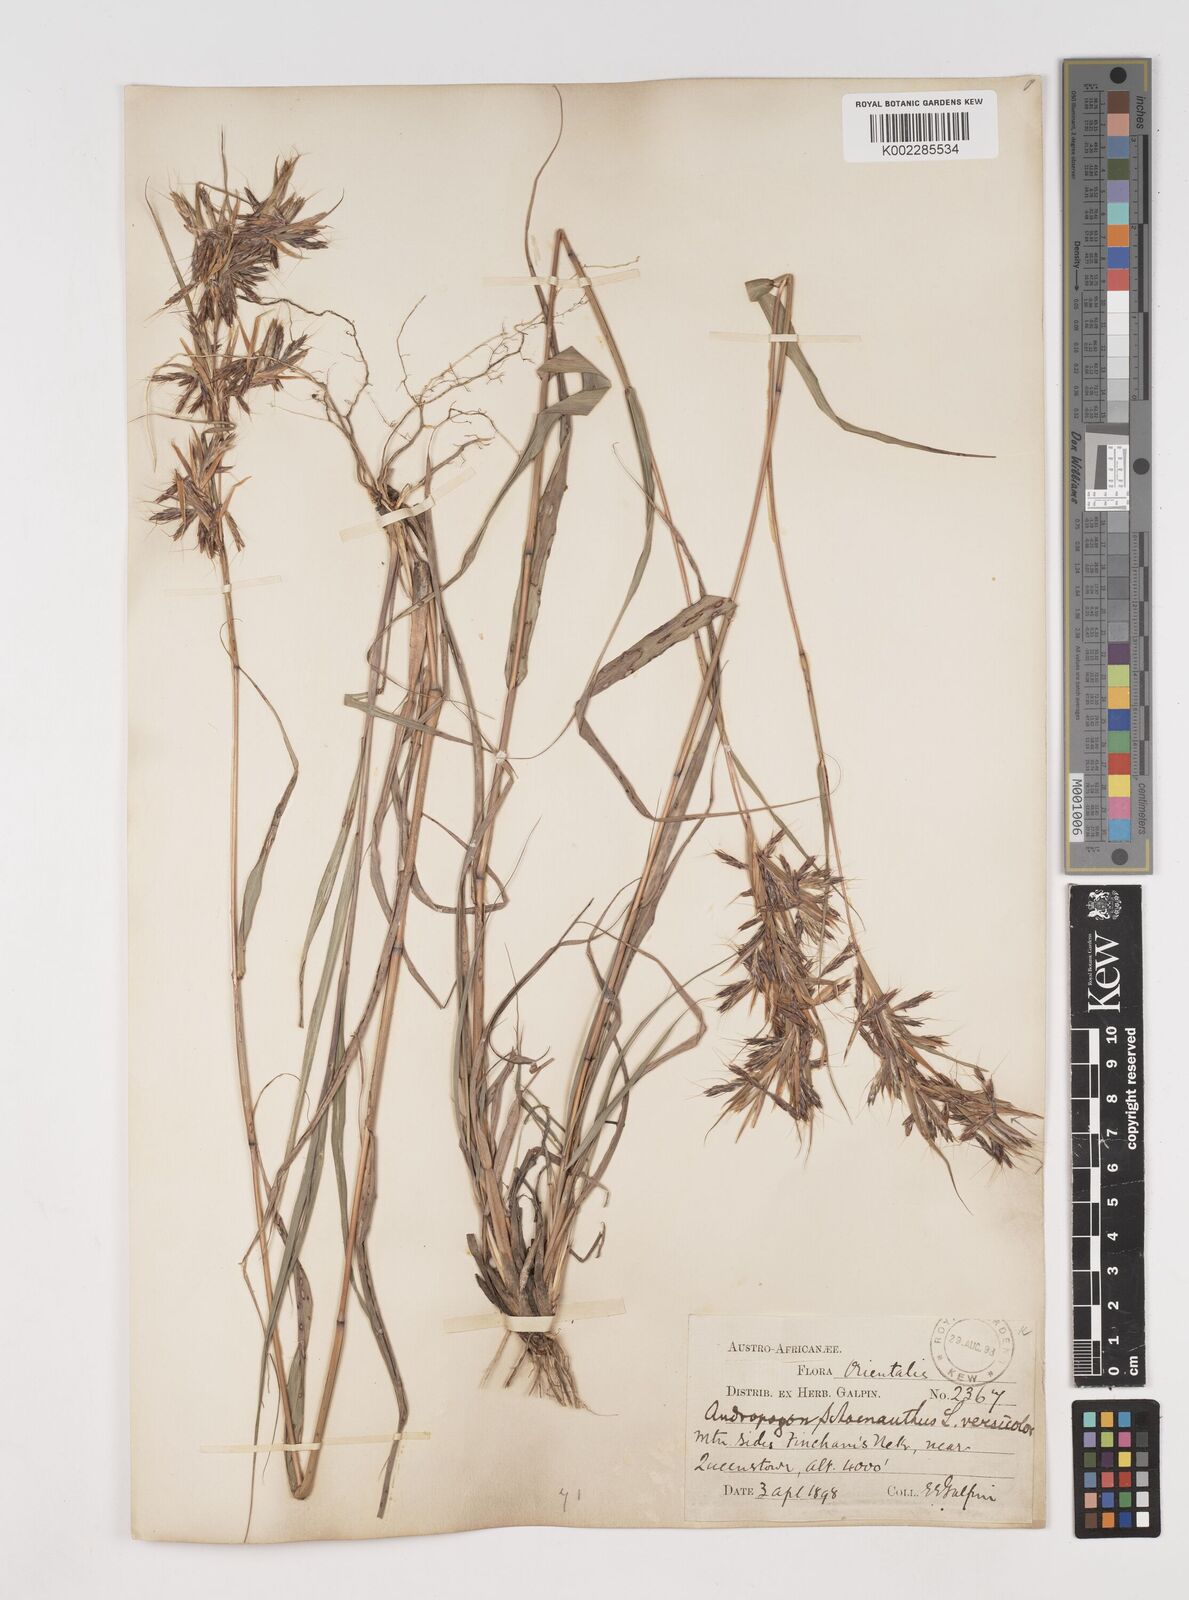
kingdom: Plantae
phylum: Tracheophyta
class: Liliopsida
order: Poales
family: Poaceae
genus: Cymbopogon
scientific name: Cymbopogon caesius
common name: Kachi grass
